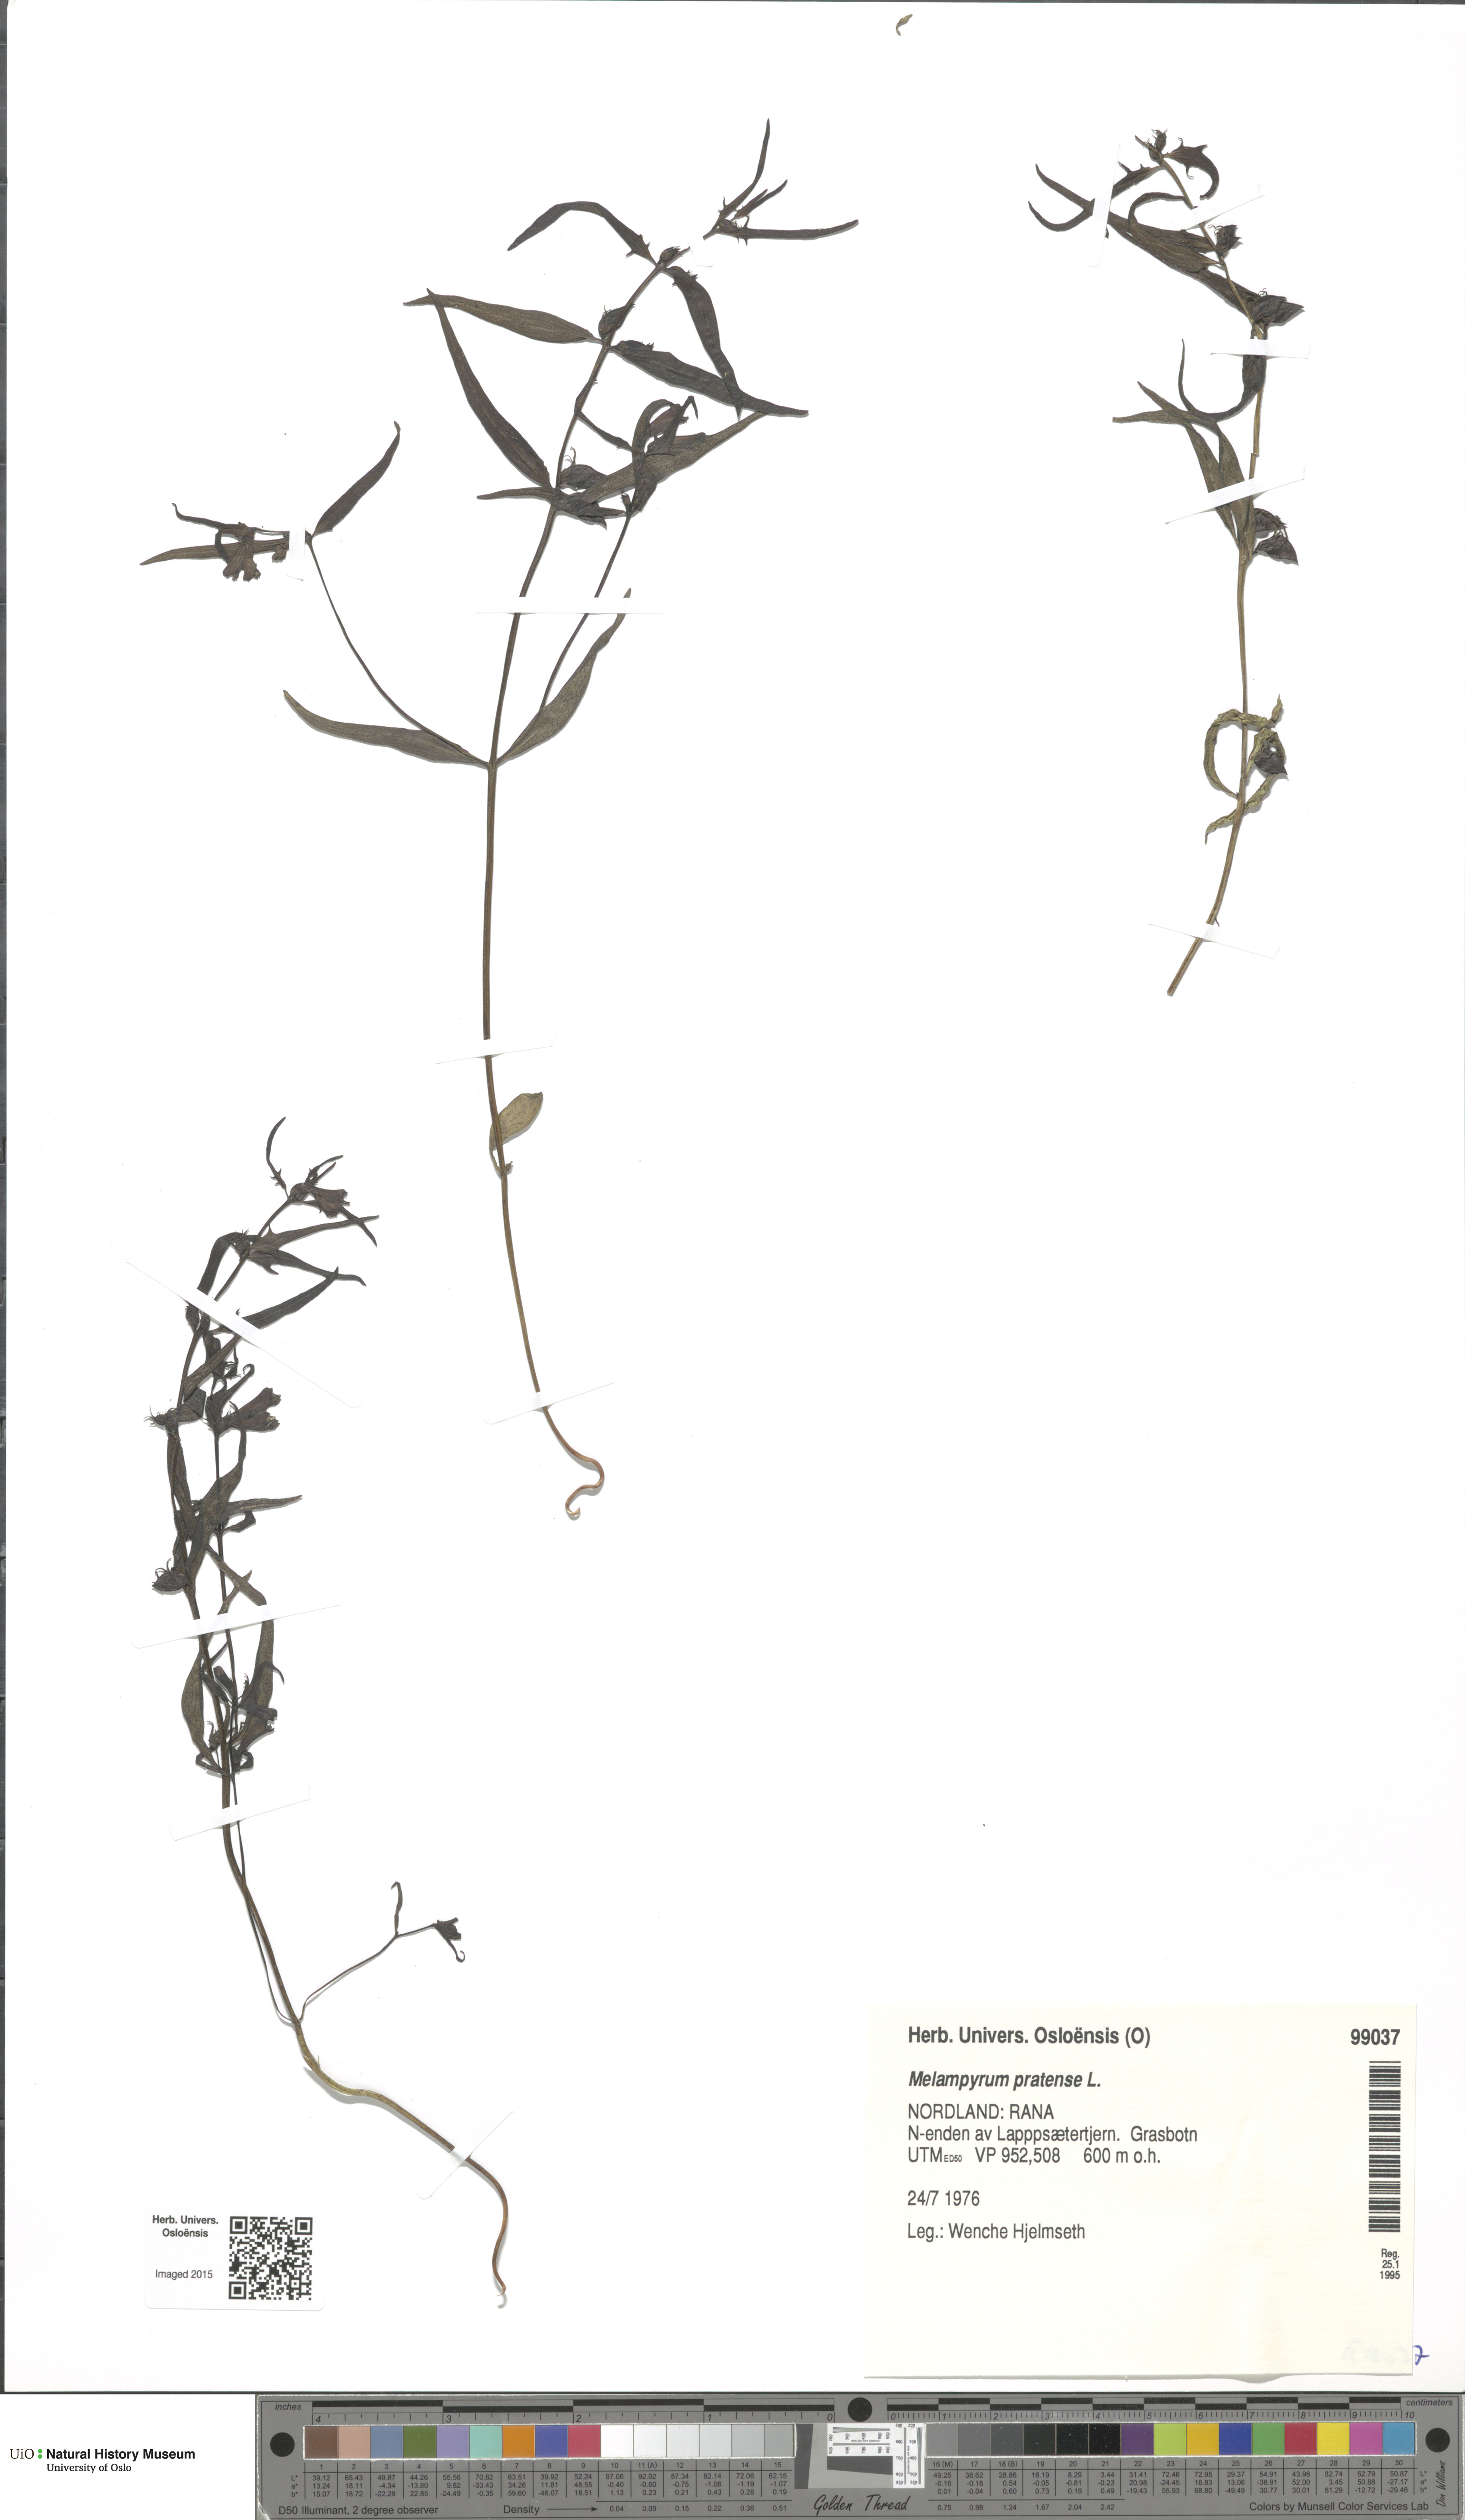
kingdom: Plantae
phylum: Tracheophyta
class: Magnoliopsida
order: Lamiales
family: Orobanchaceae
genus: Melampyrum
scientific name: Melampyrum pratense
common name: Common cow-wheat
